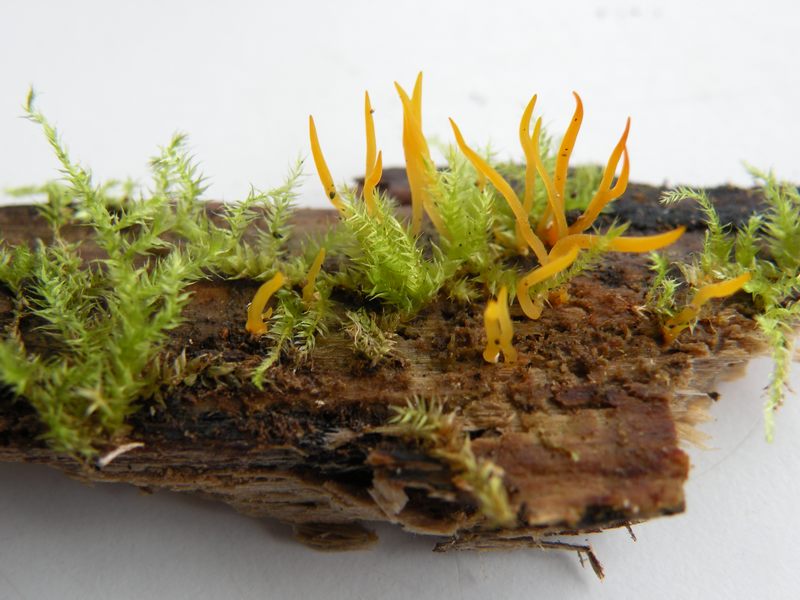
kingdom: Fungi
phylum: Basidiomycota
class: Dacrymycetes
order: Dacrymycetales
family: Dacrymycetaceae
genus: Calocera
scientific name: Calocera cornea
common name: liden guldgaffel
